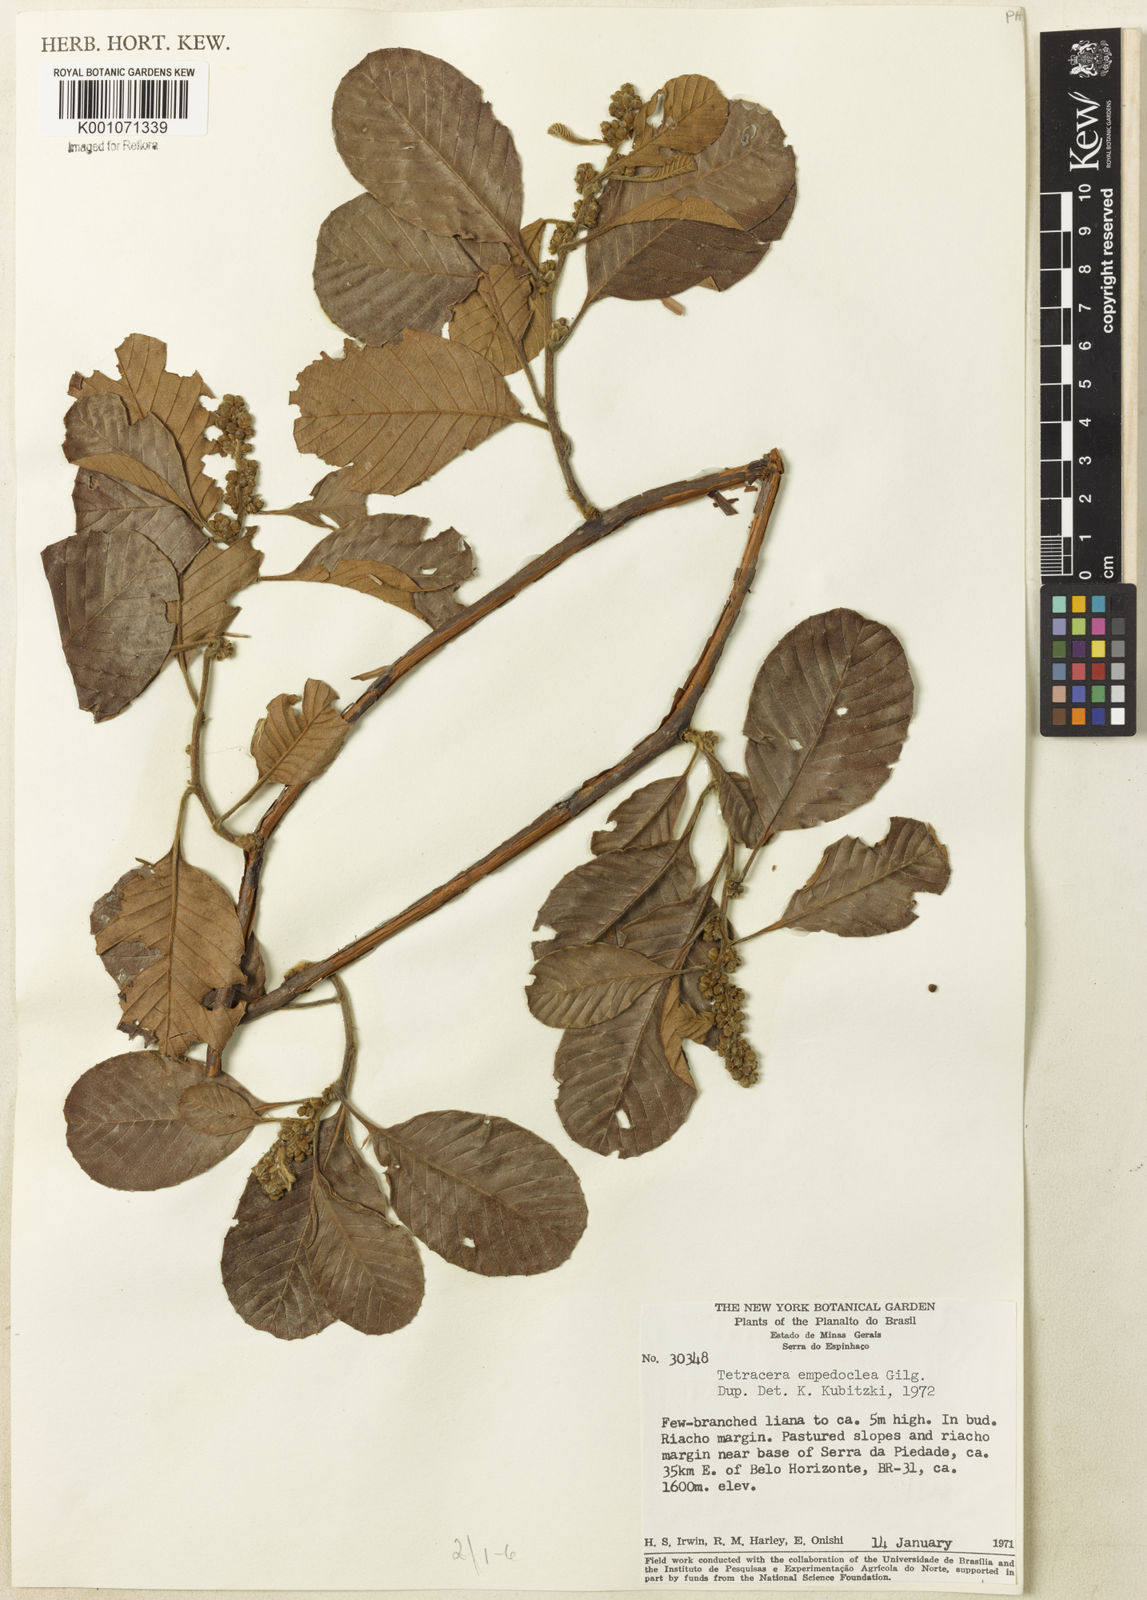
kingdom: Plantae
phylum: Tracheophyta
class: Magnoliopsida
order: Dilleniales
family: Dilleniaceae
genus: Tetracera
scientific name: Tetracera empedoclea
